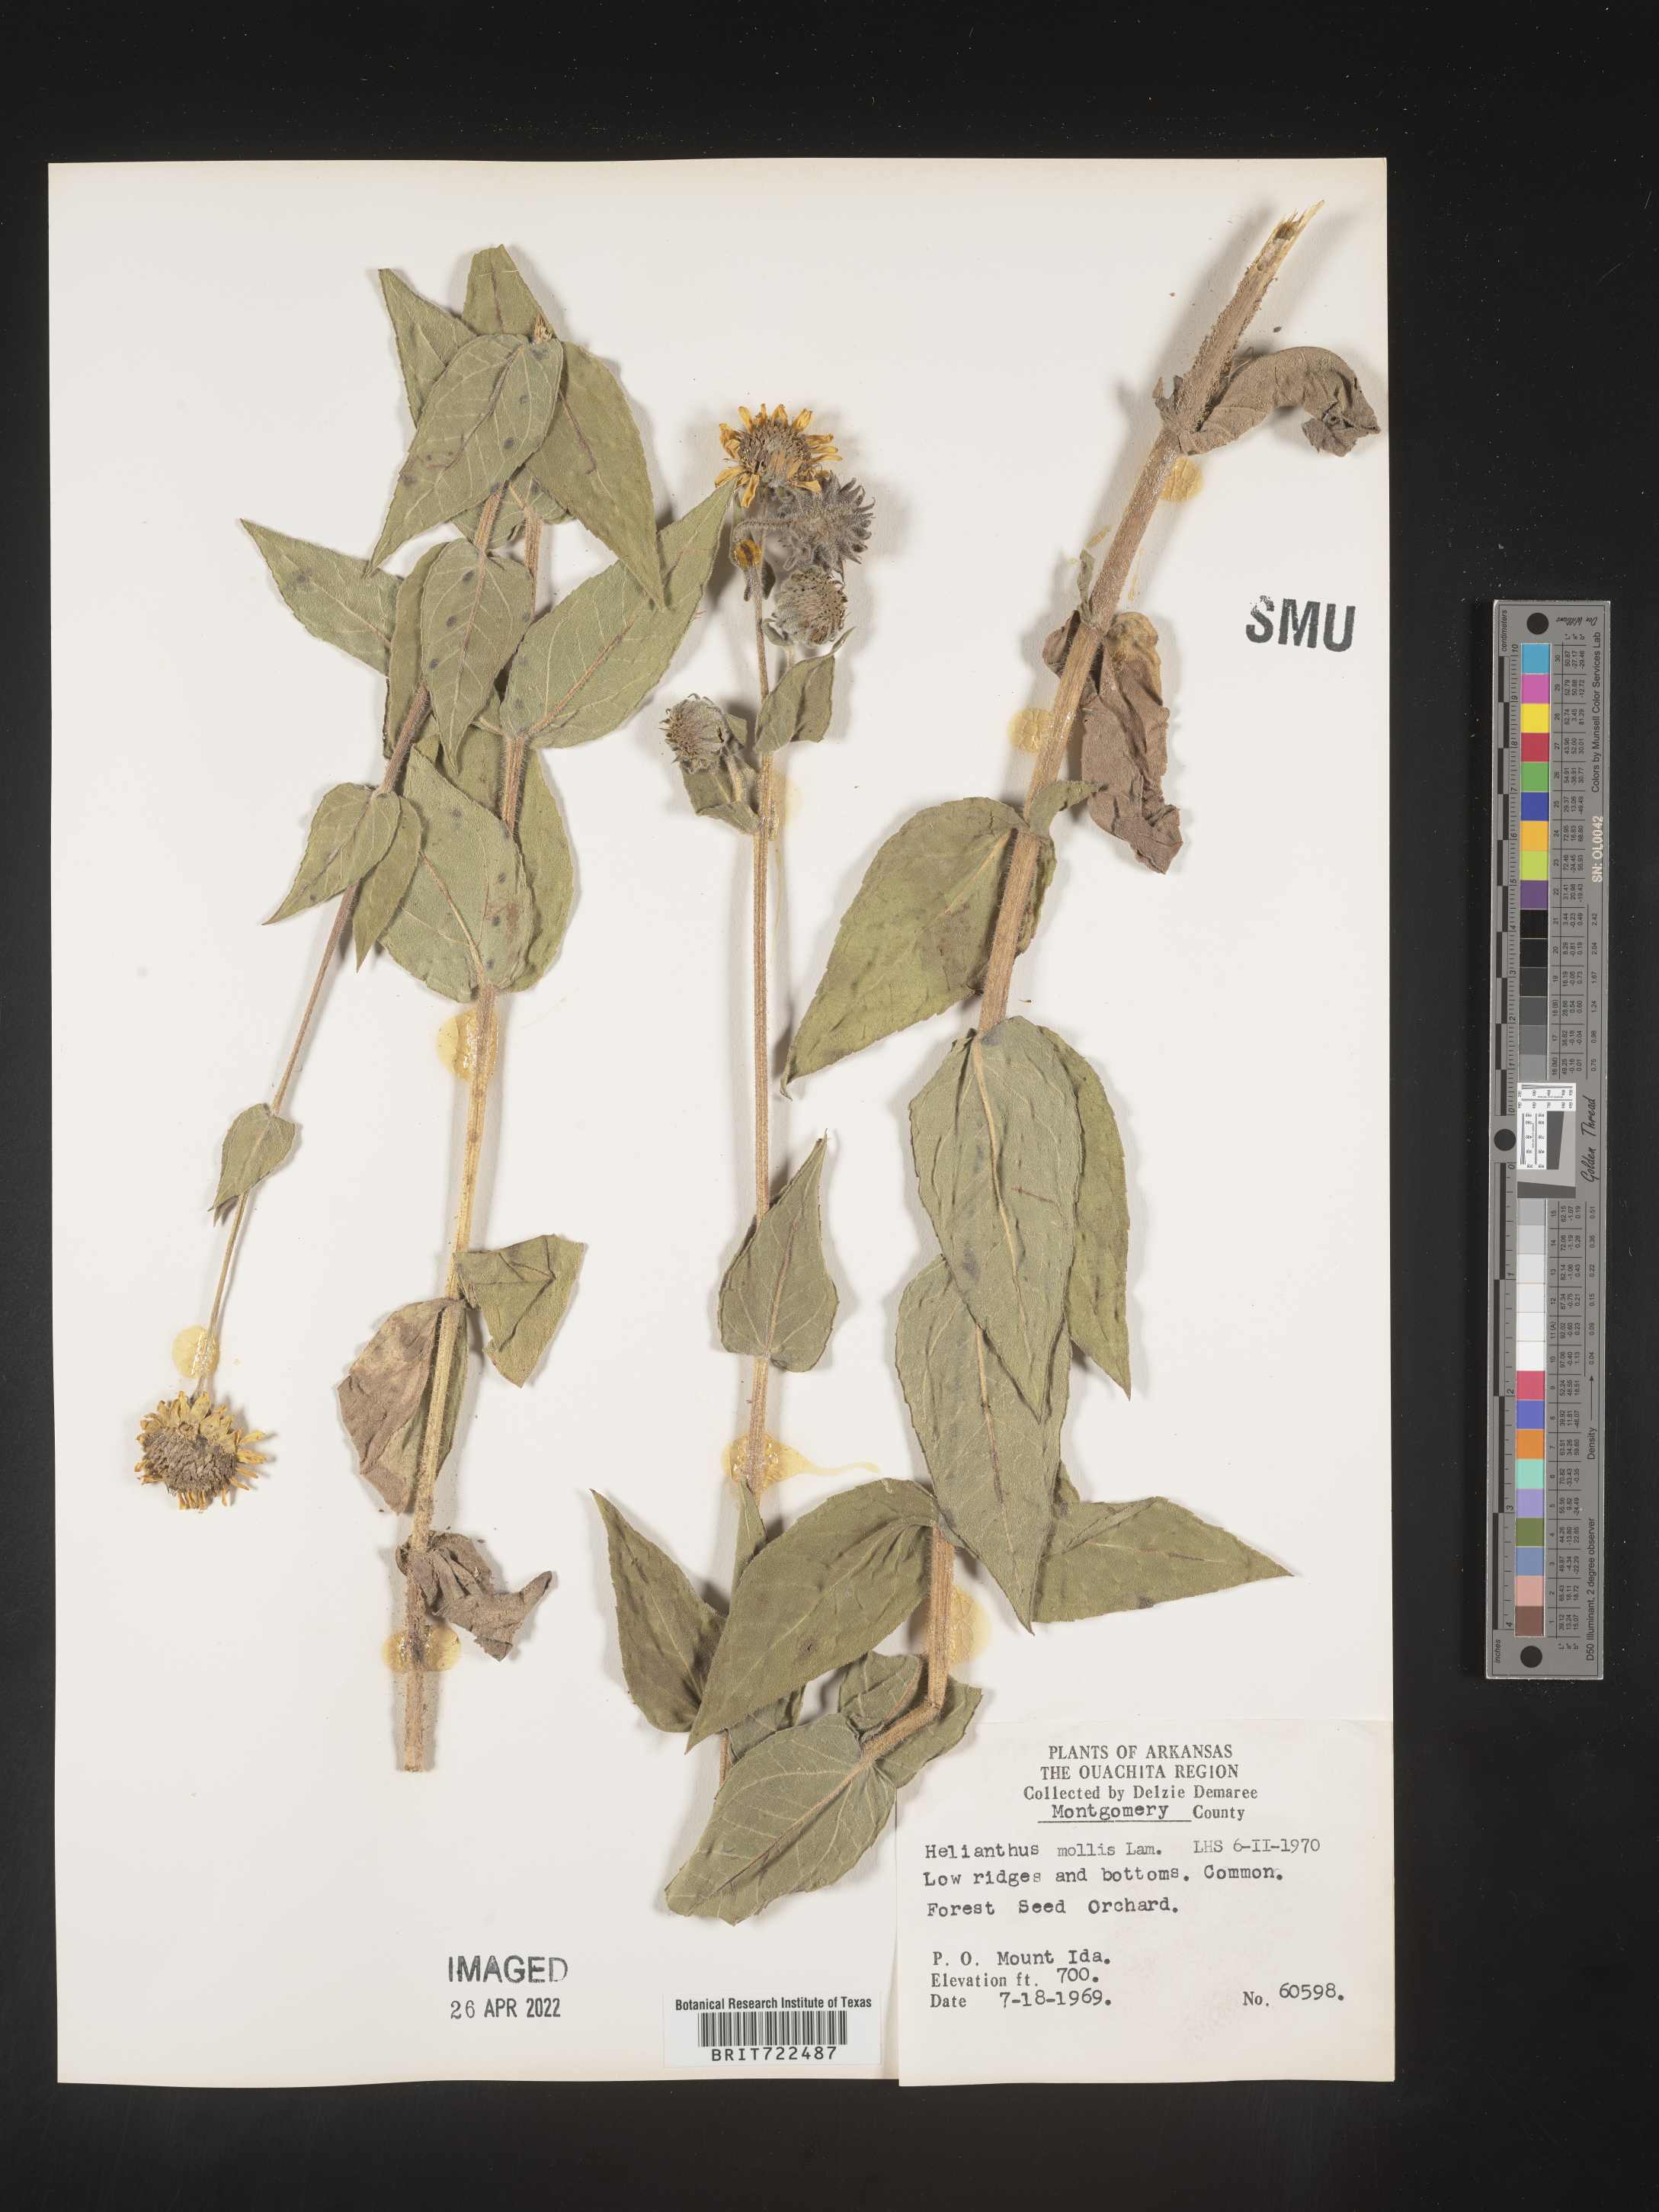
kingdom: Plantae
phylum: Tracheophyta
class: Magnoliopsida
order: Asterales
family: Asteraceae
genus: Helianthus
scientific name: Helianthus mollis
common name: Ashy sunflower
